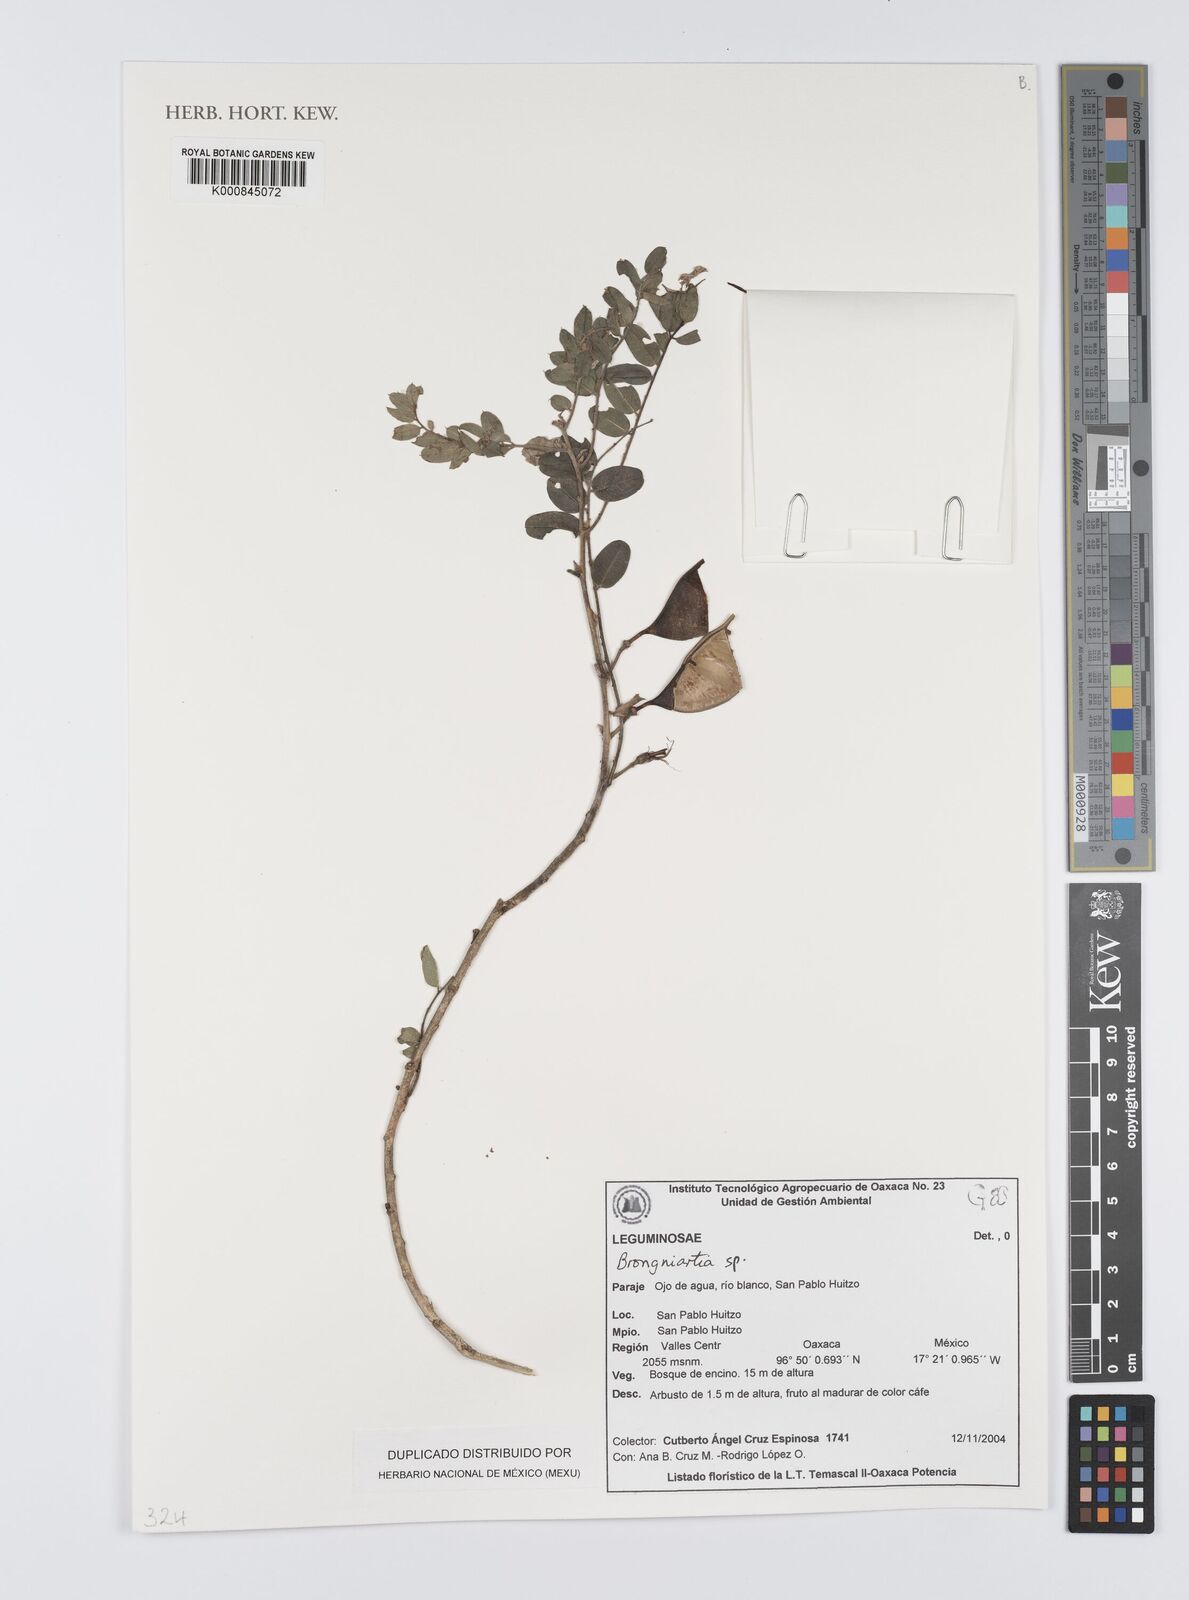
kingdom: Plantae
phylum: Tracheophyta
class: Magnoliopsida
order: Fabales
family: Fabaceae
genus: Brongniartia
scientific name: Brongniartia
